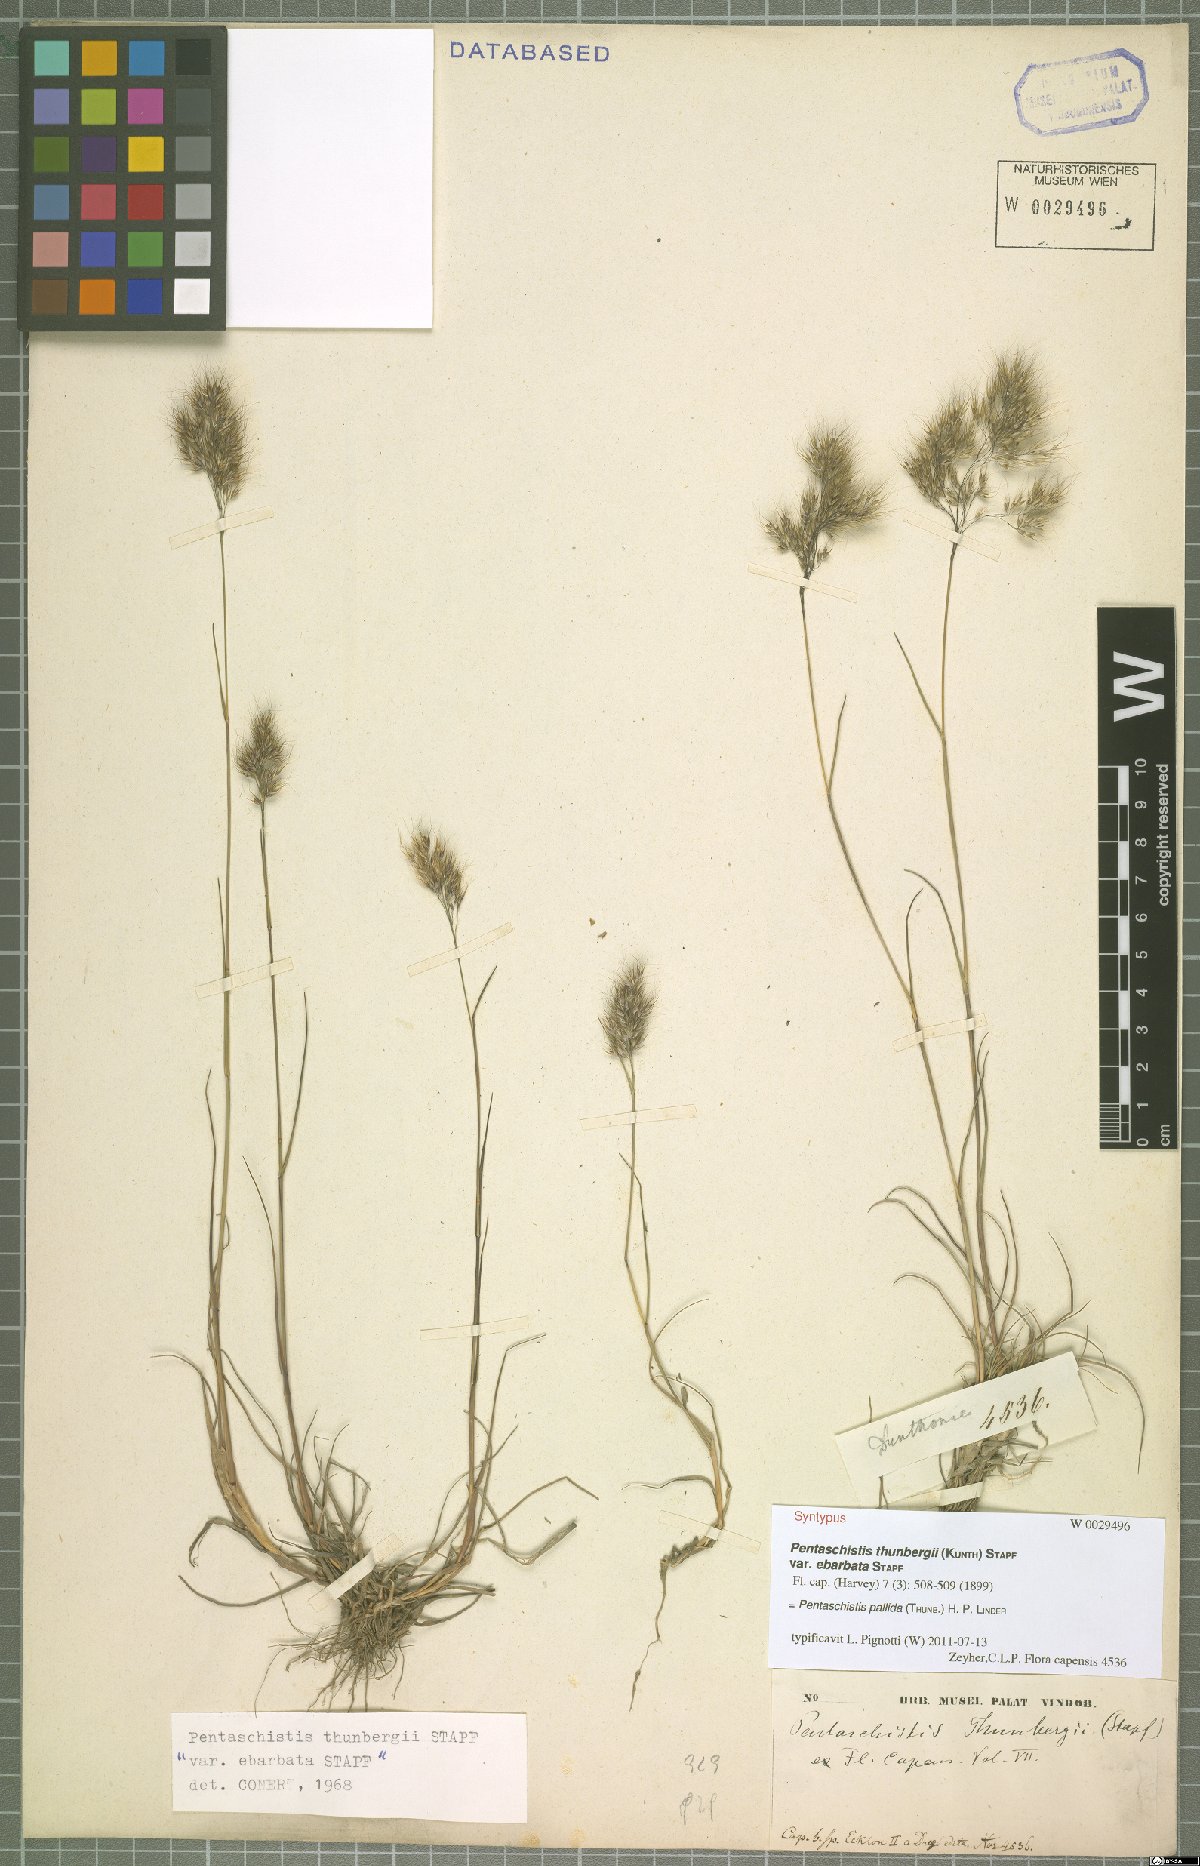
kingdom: Plantae
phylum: Tracheophyta
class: Liliopsida
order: Poales
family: Poaceae
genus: Pentameris
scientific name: Pentameris pallida
